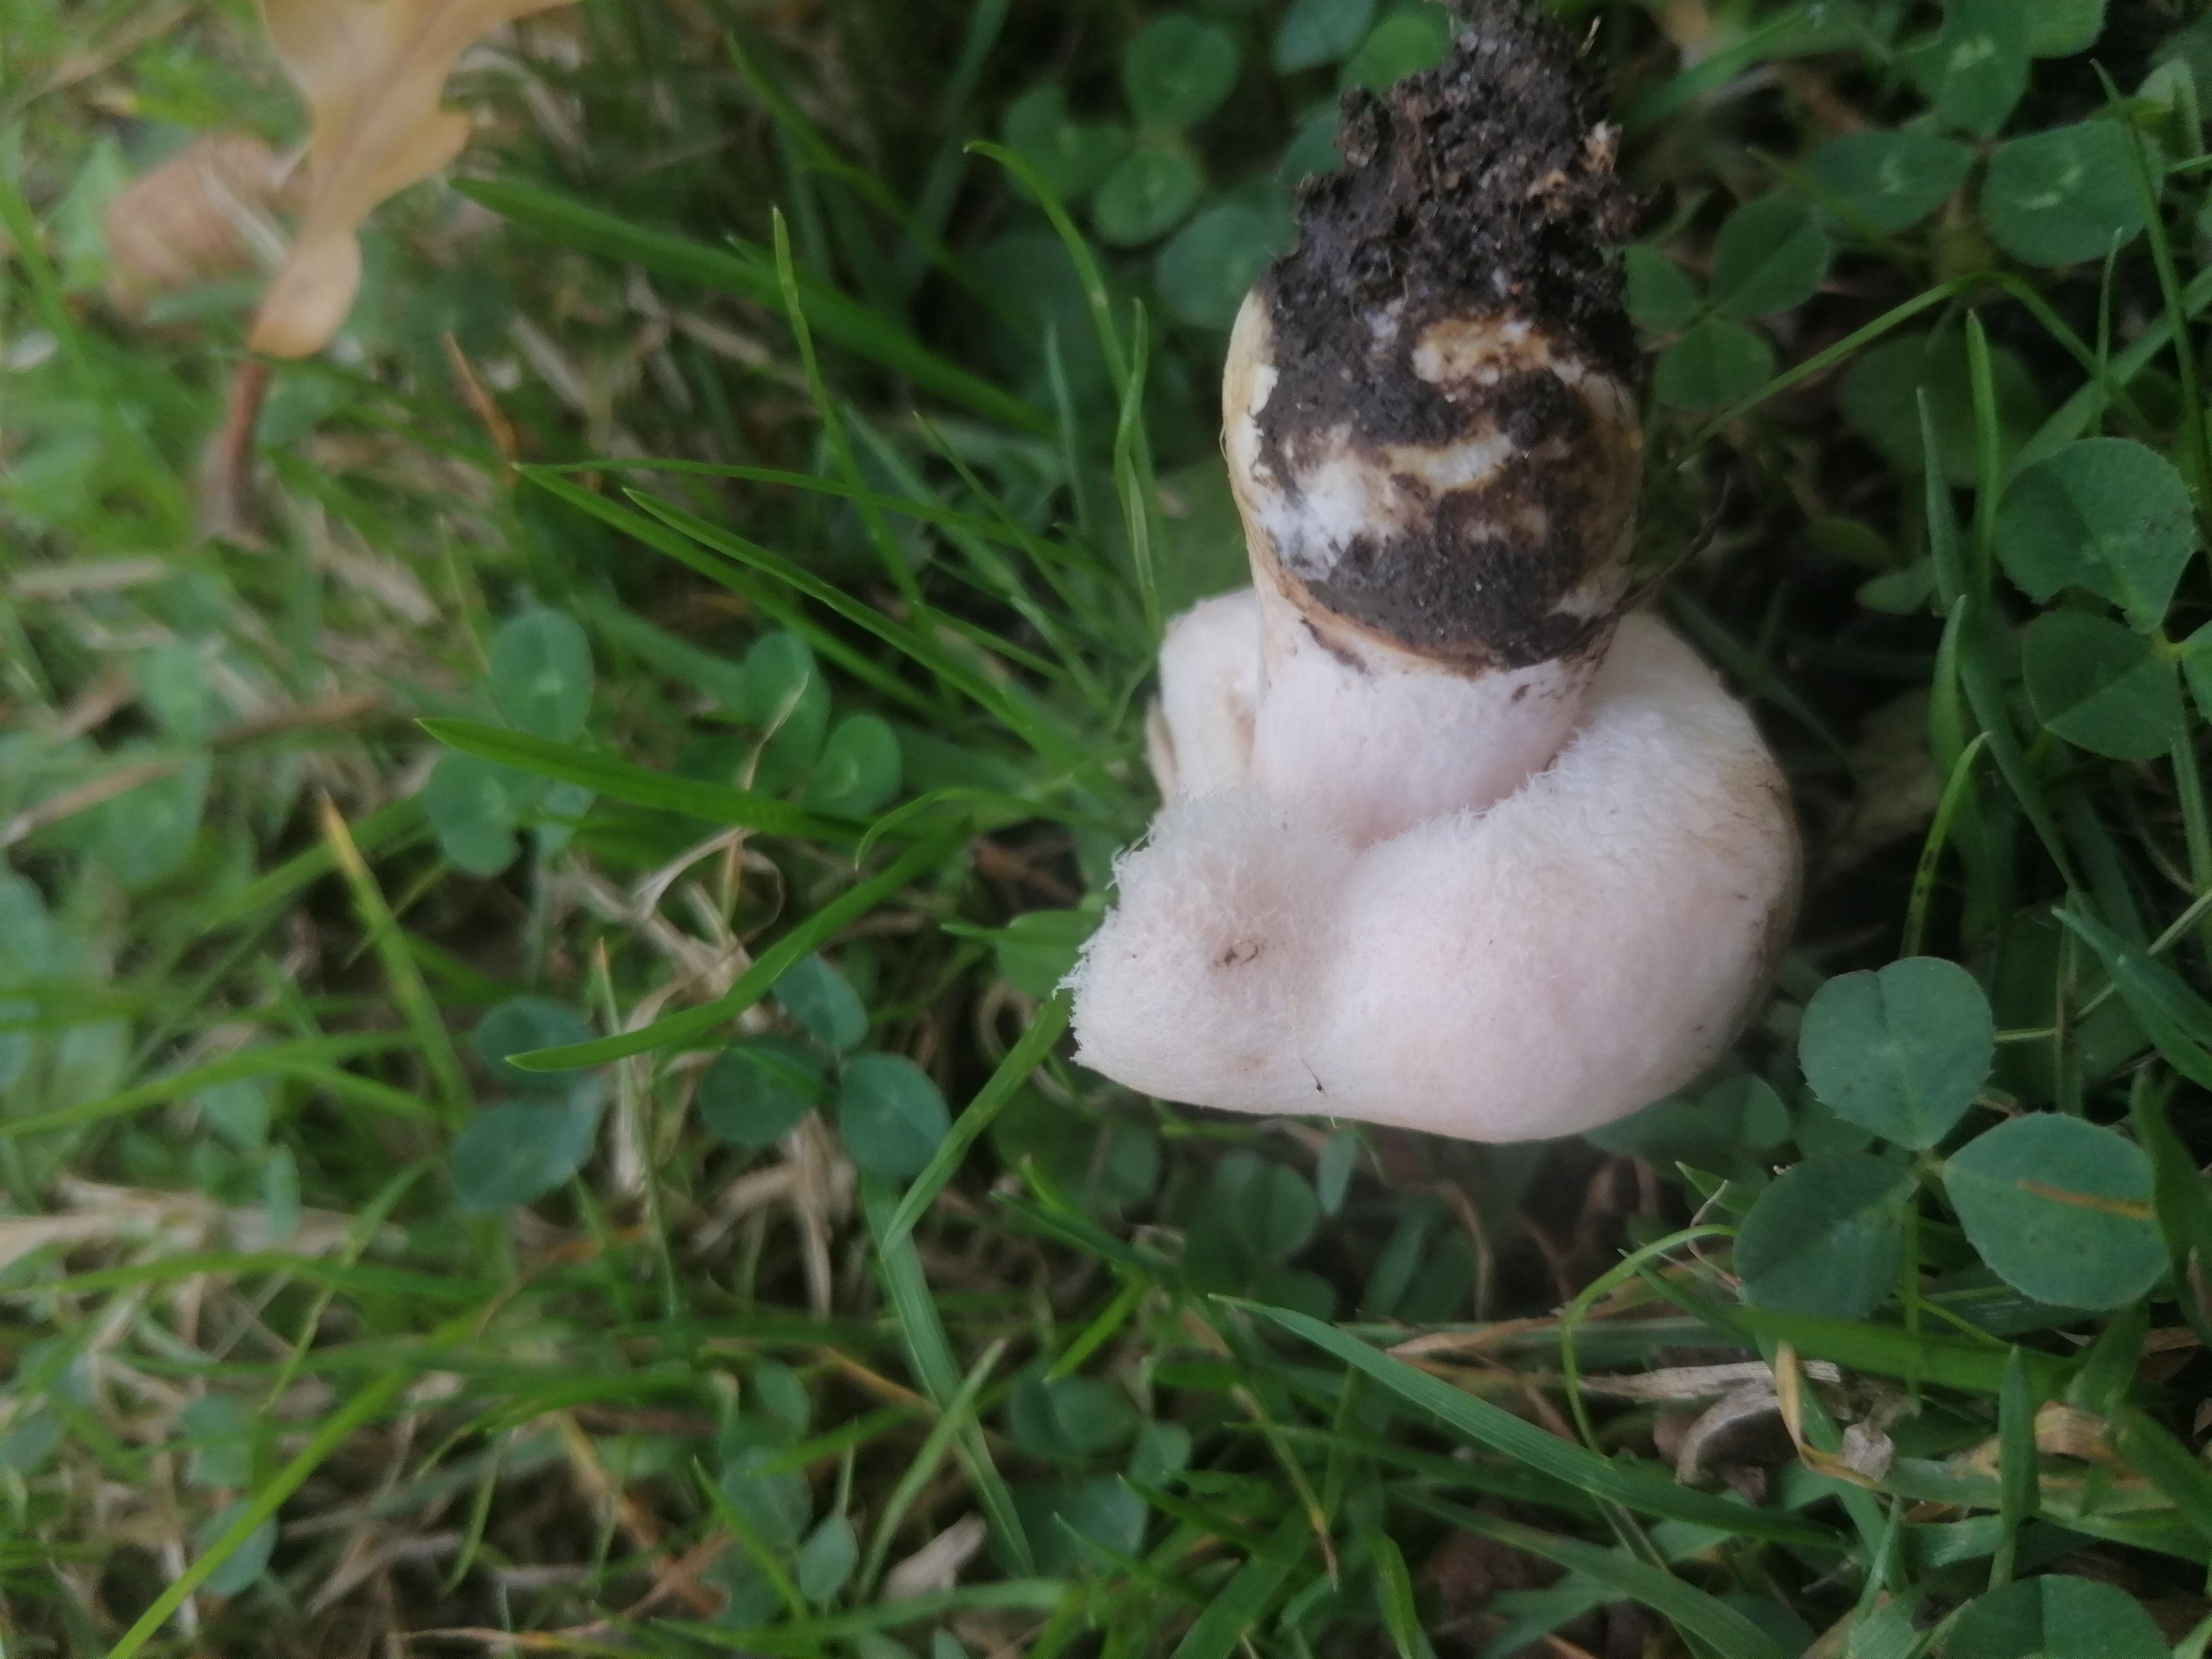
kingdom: Fungi
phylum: Basidiomycota
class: Agaricomycetes
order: Russulales
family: Russulaceae
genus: Lactarius
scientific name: Lactarius pubescens
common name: dunet mælkehat
